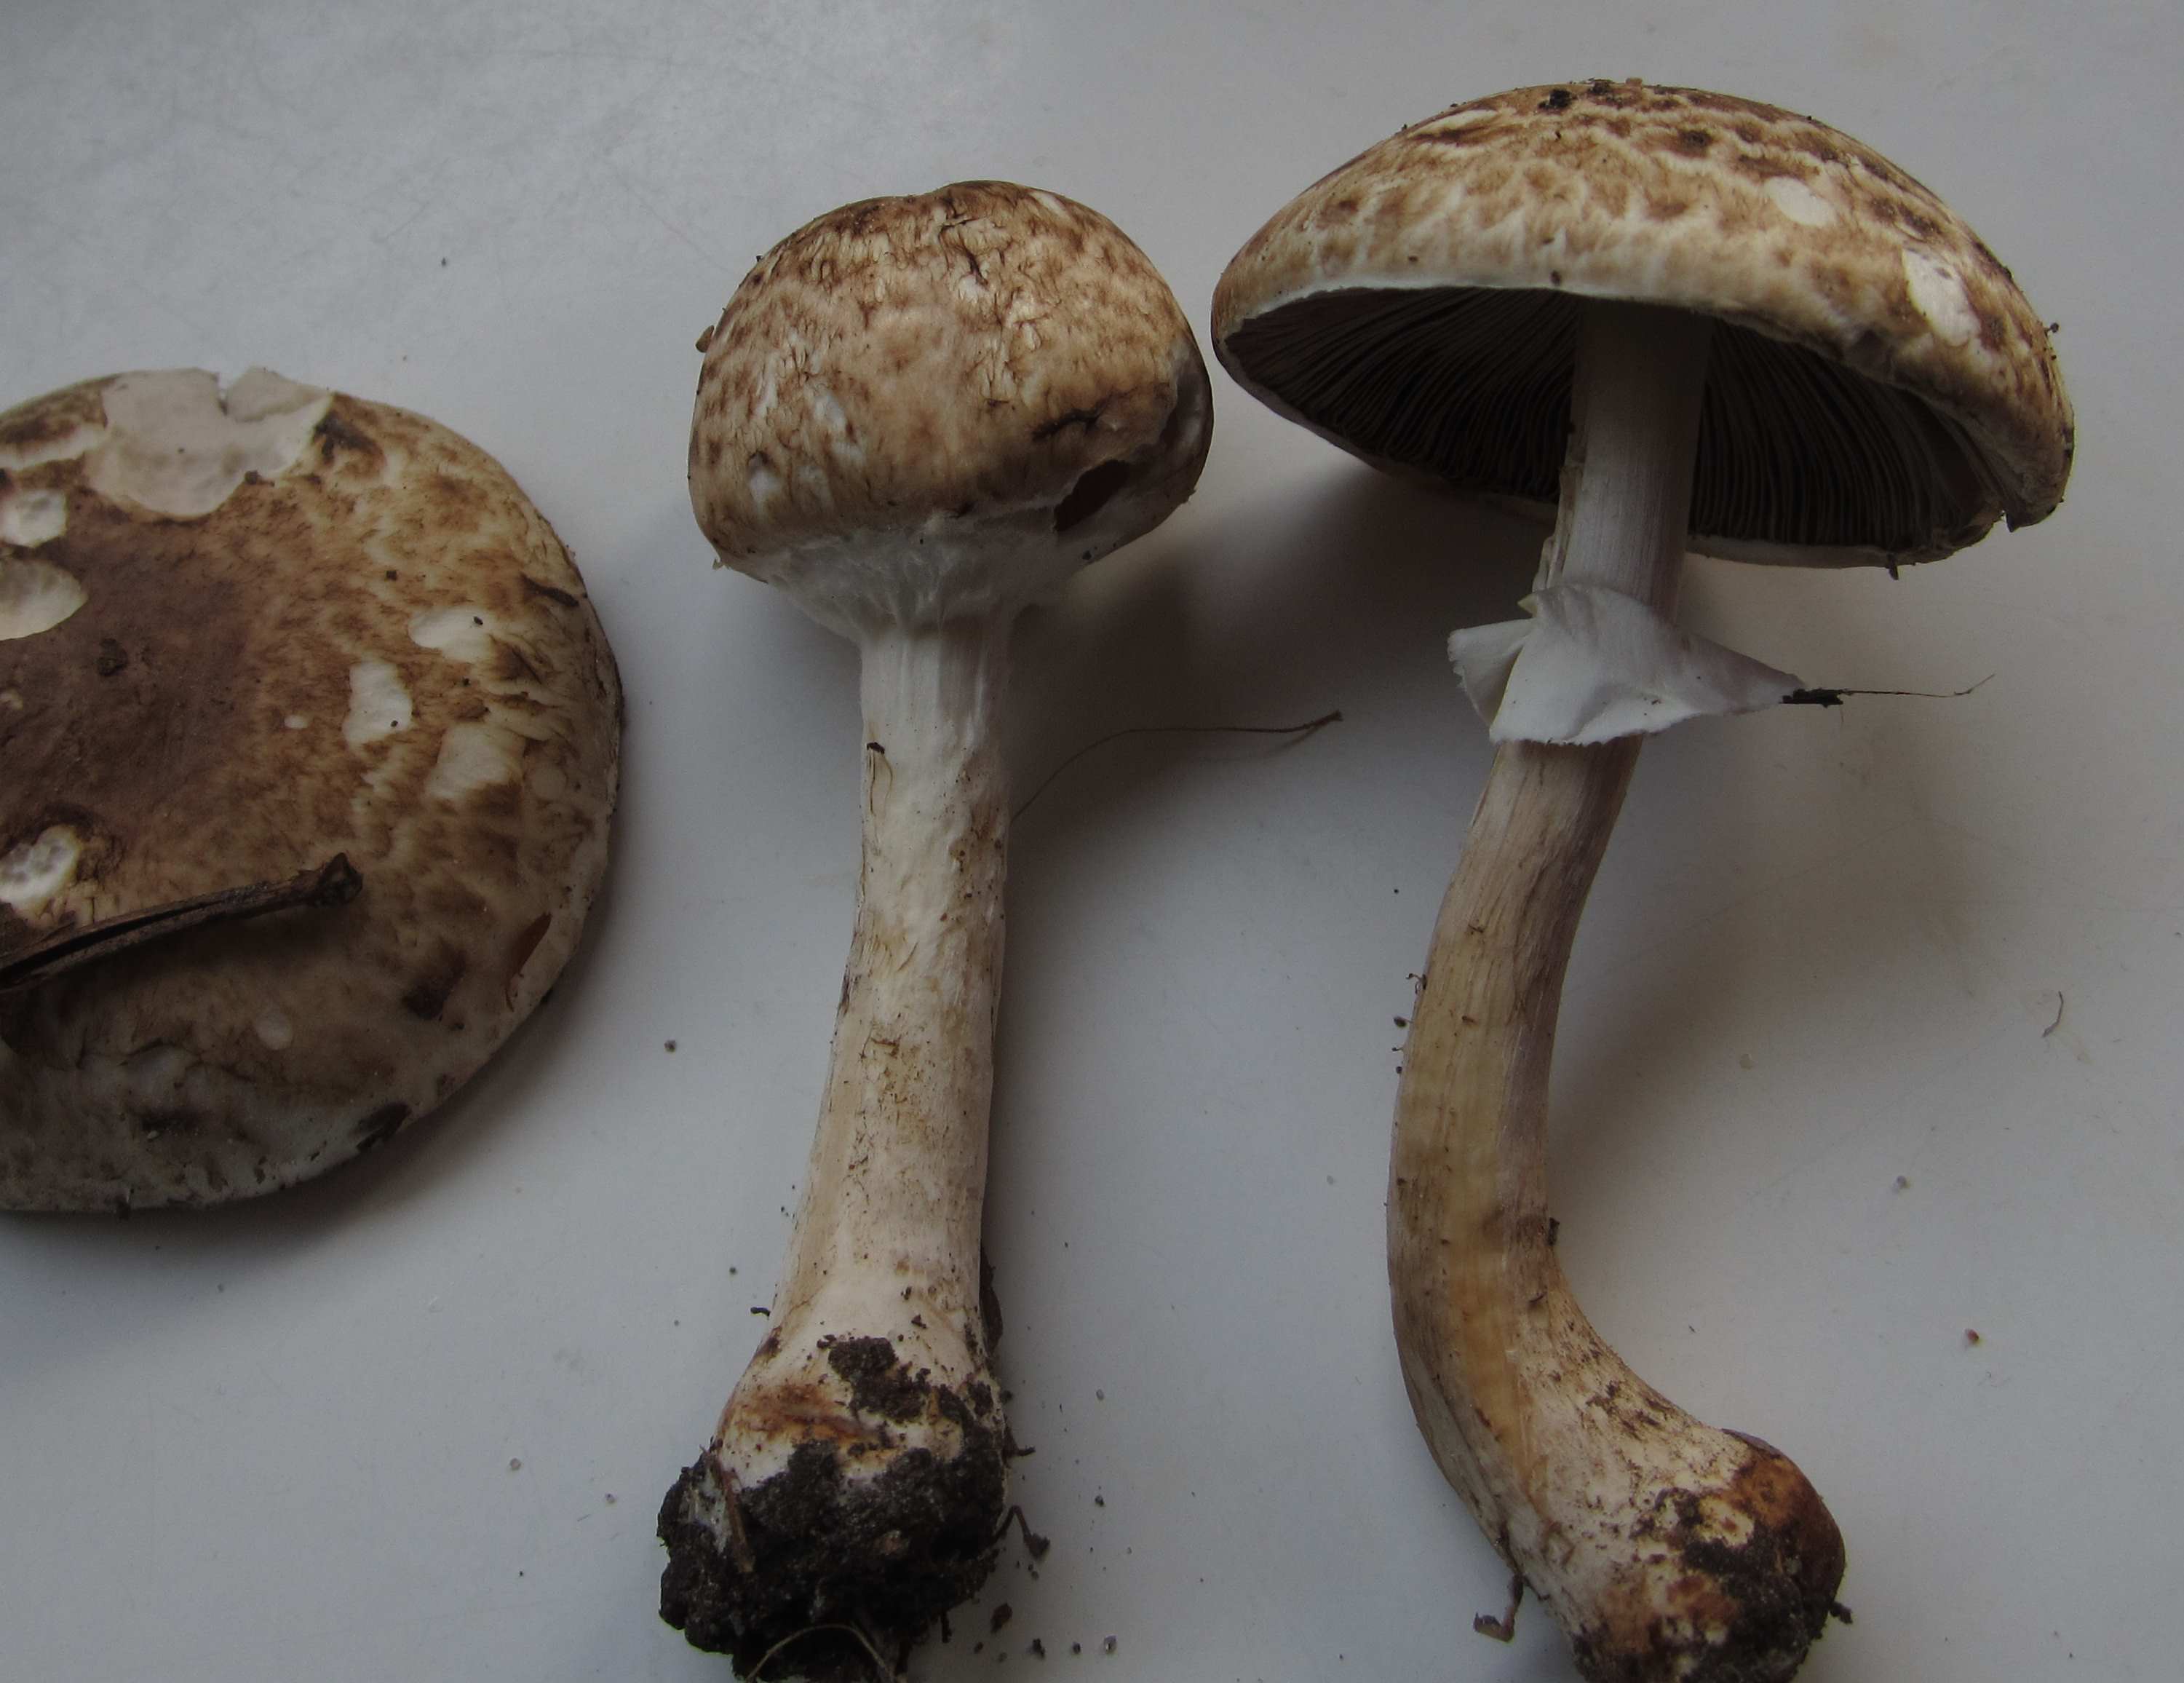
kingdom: Fungi
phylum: Basidiomycota
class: Agaricomycetes
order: Agaricales
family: Agaricaceae
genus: Agaricus
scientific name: Agaricus impudicus
